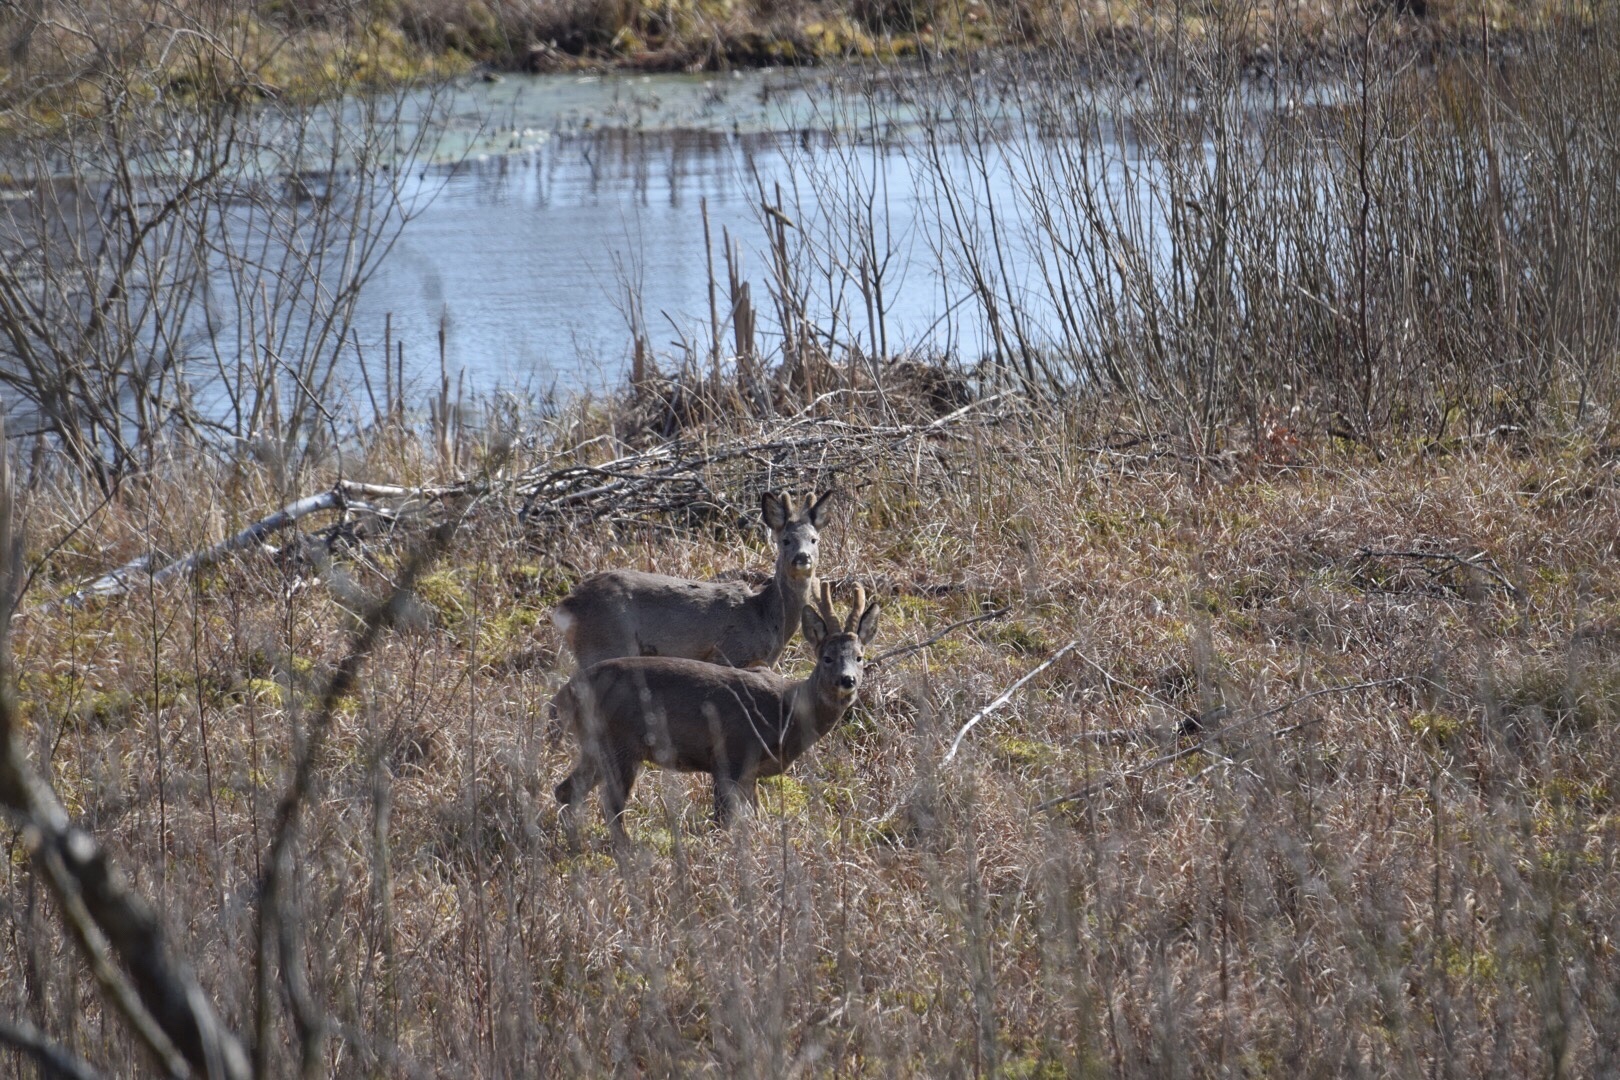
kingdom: Animalia
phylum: Chordata
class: Mammalia
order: Artiodactyla
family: Cervidae
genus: Capreolus
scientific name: Capreolus capreolus
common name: Rådyr
